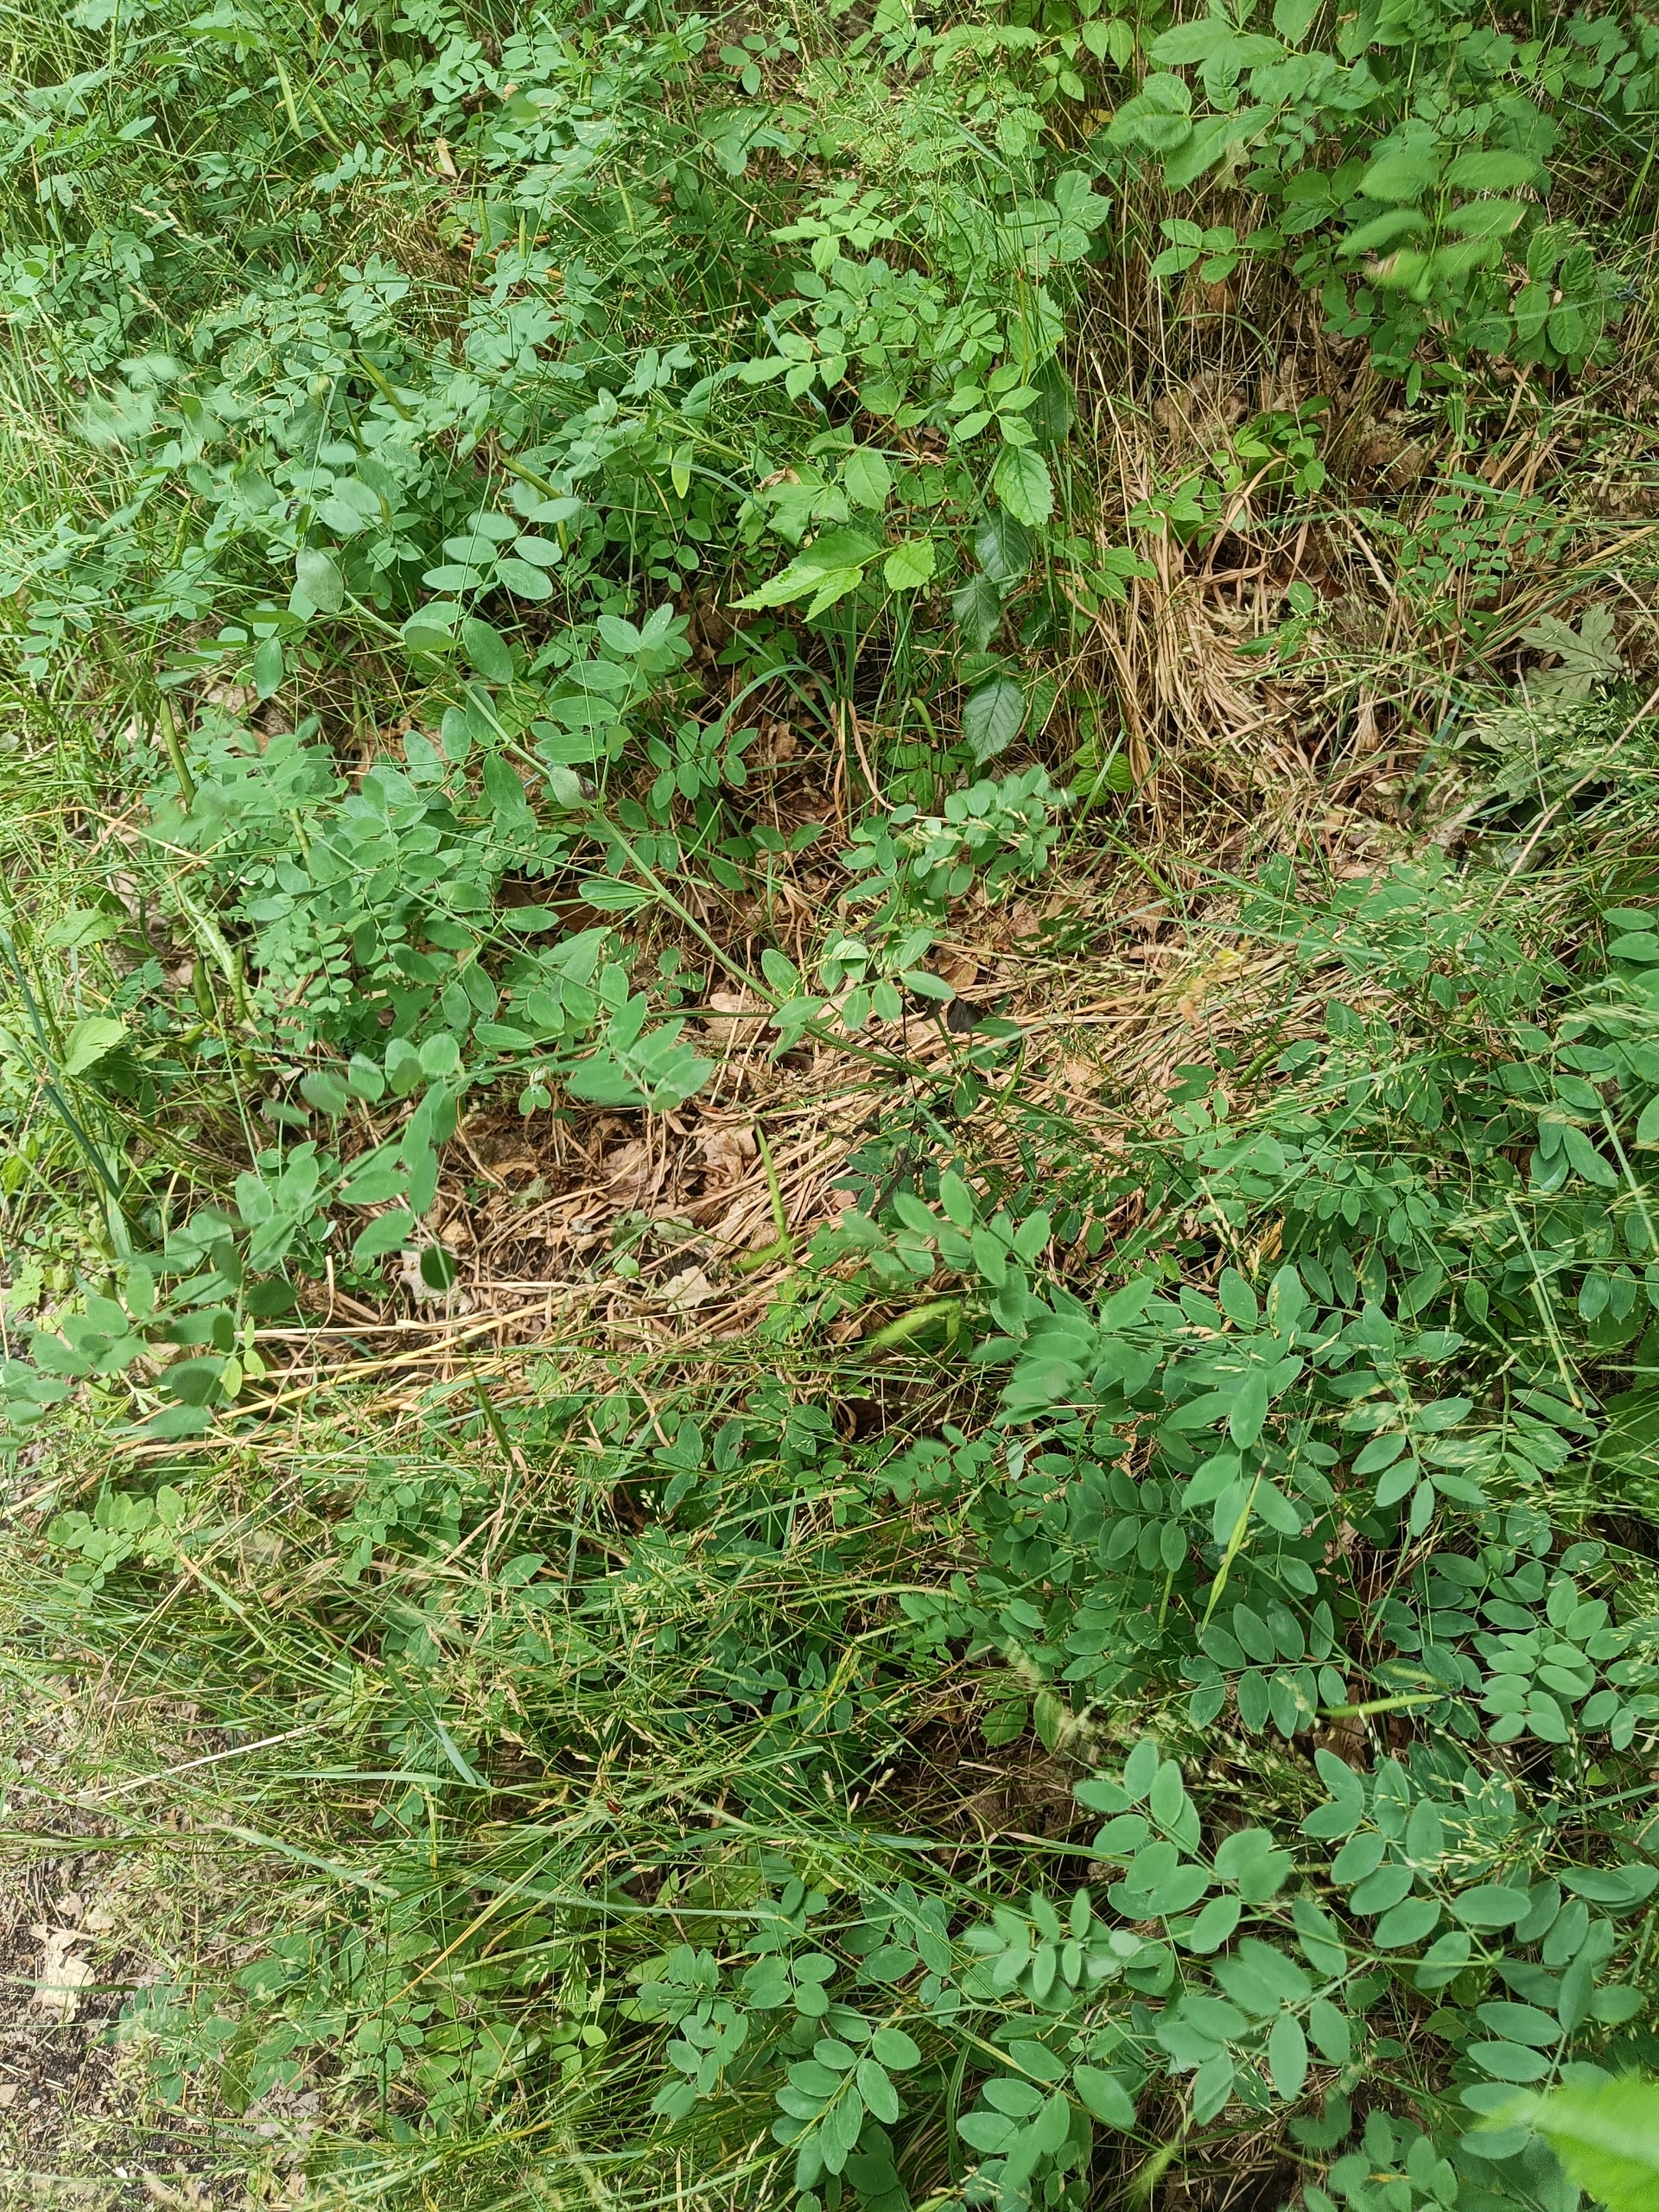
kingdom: Plantae
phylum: Tracheophyta
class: Magnoliopsida
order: Fabales
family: Fabaceae
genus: Lathyrus
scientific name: Lathyrus niger
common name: Sort fladbælg
